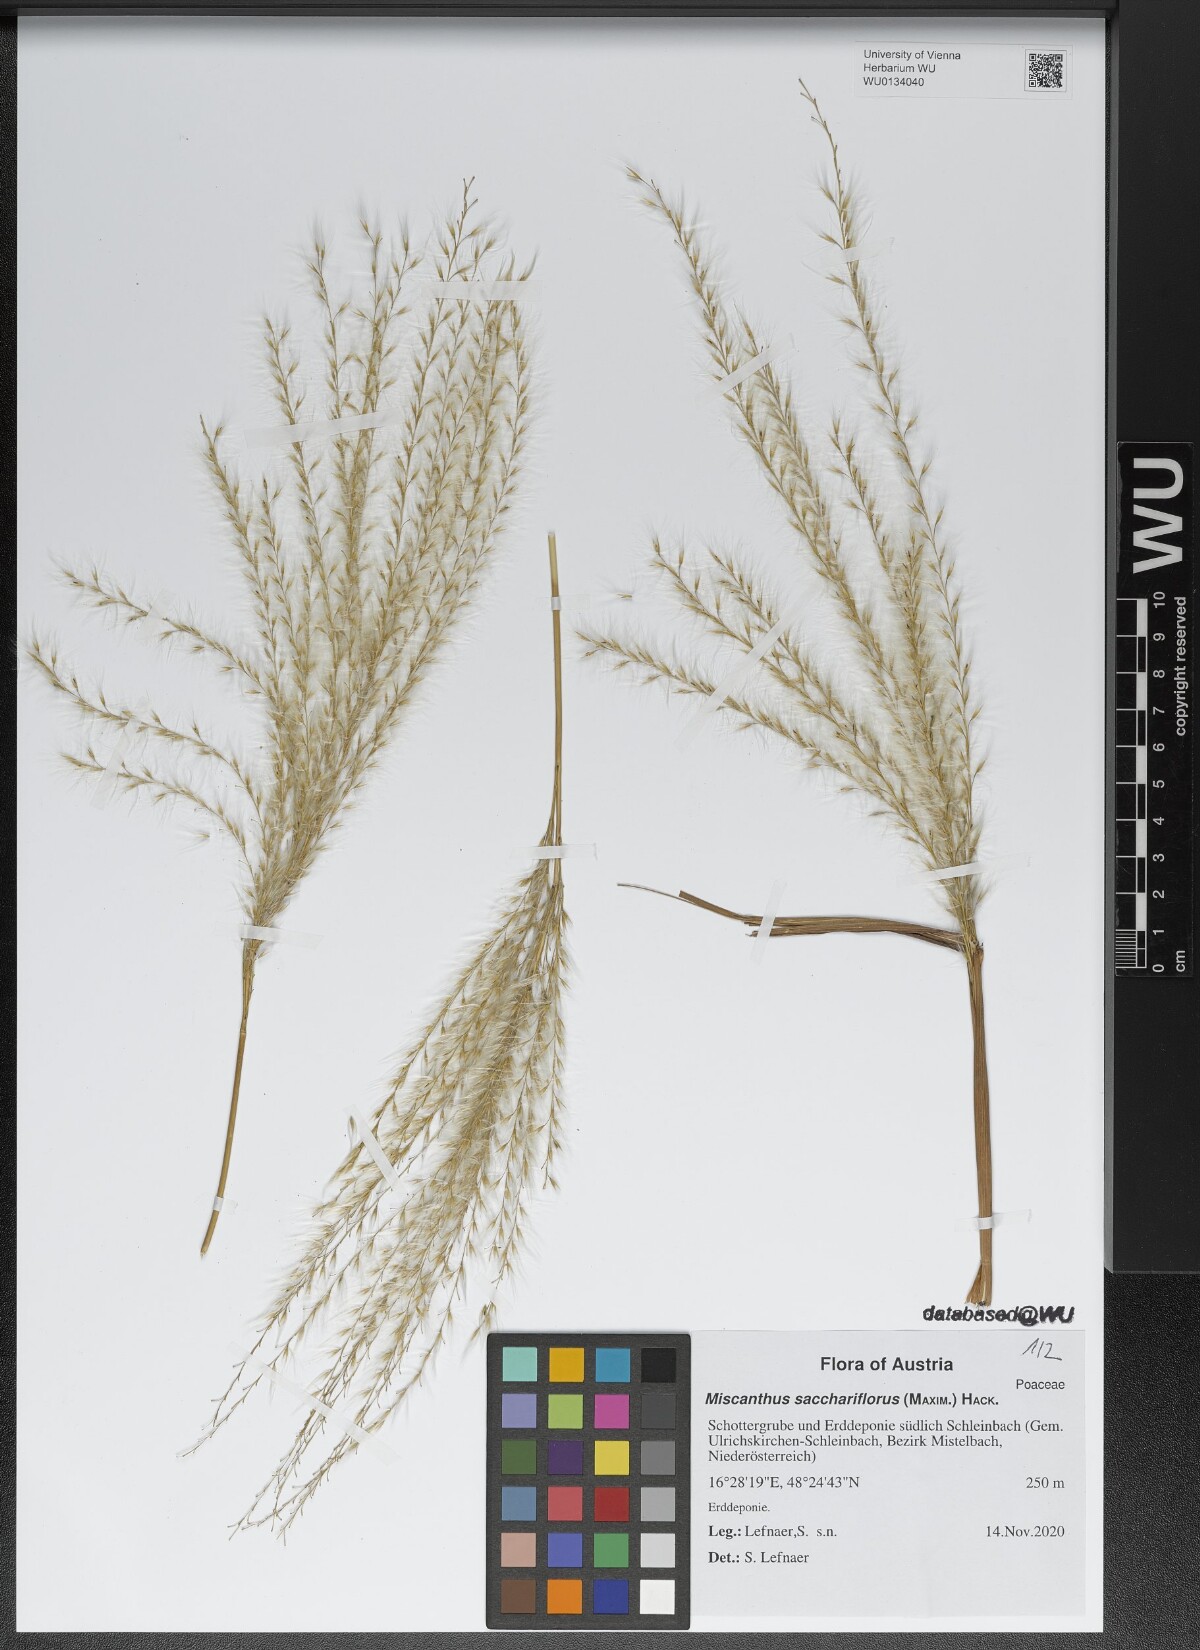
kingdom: Plantae
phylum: Tracheophyta
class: Liliopsida
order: Poales
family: Poaceae
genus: Miscanthus
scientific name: Miscanthus sacchariflorus
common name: Amur silver grass
